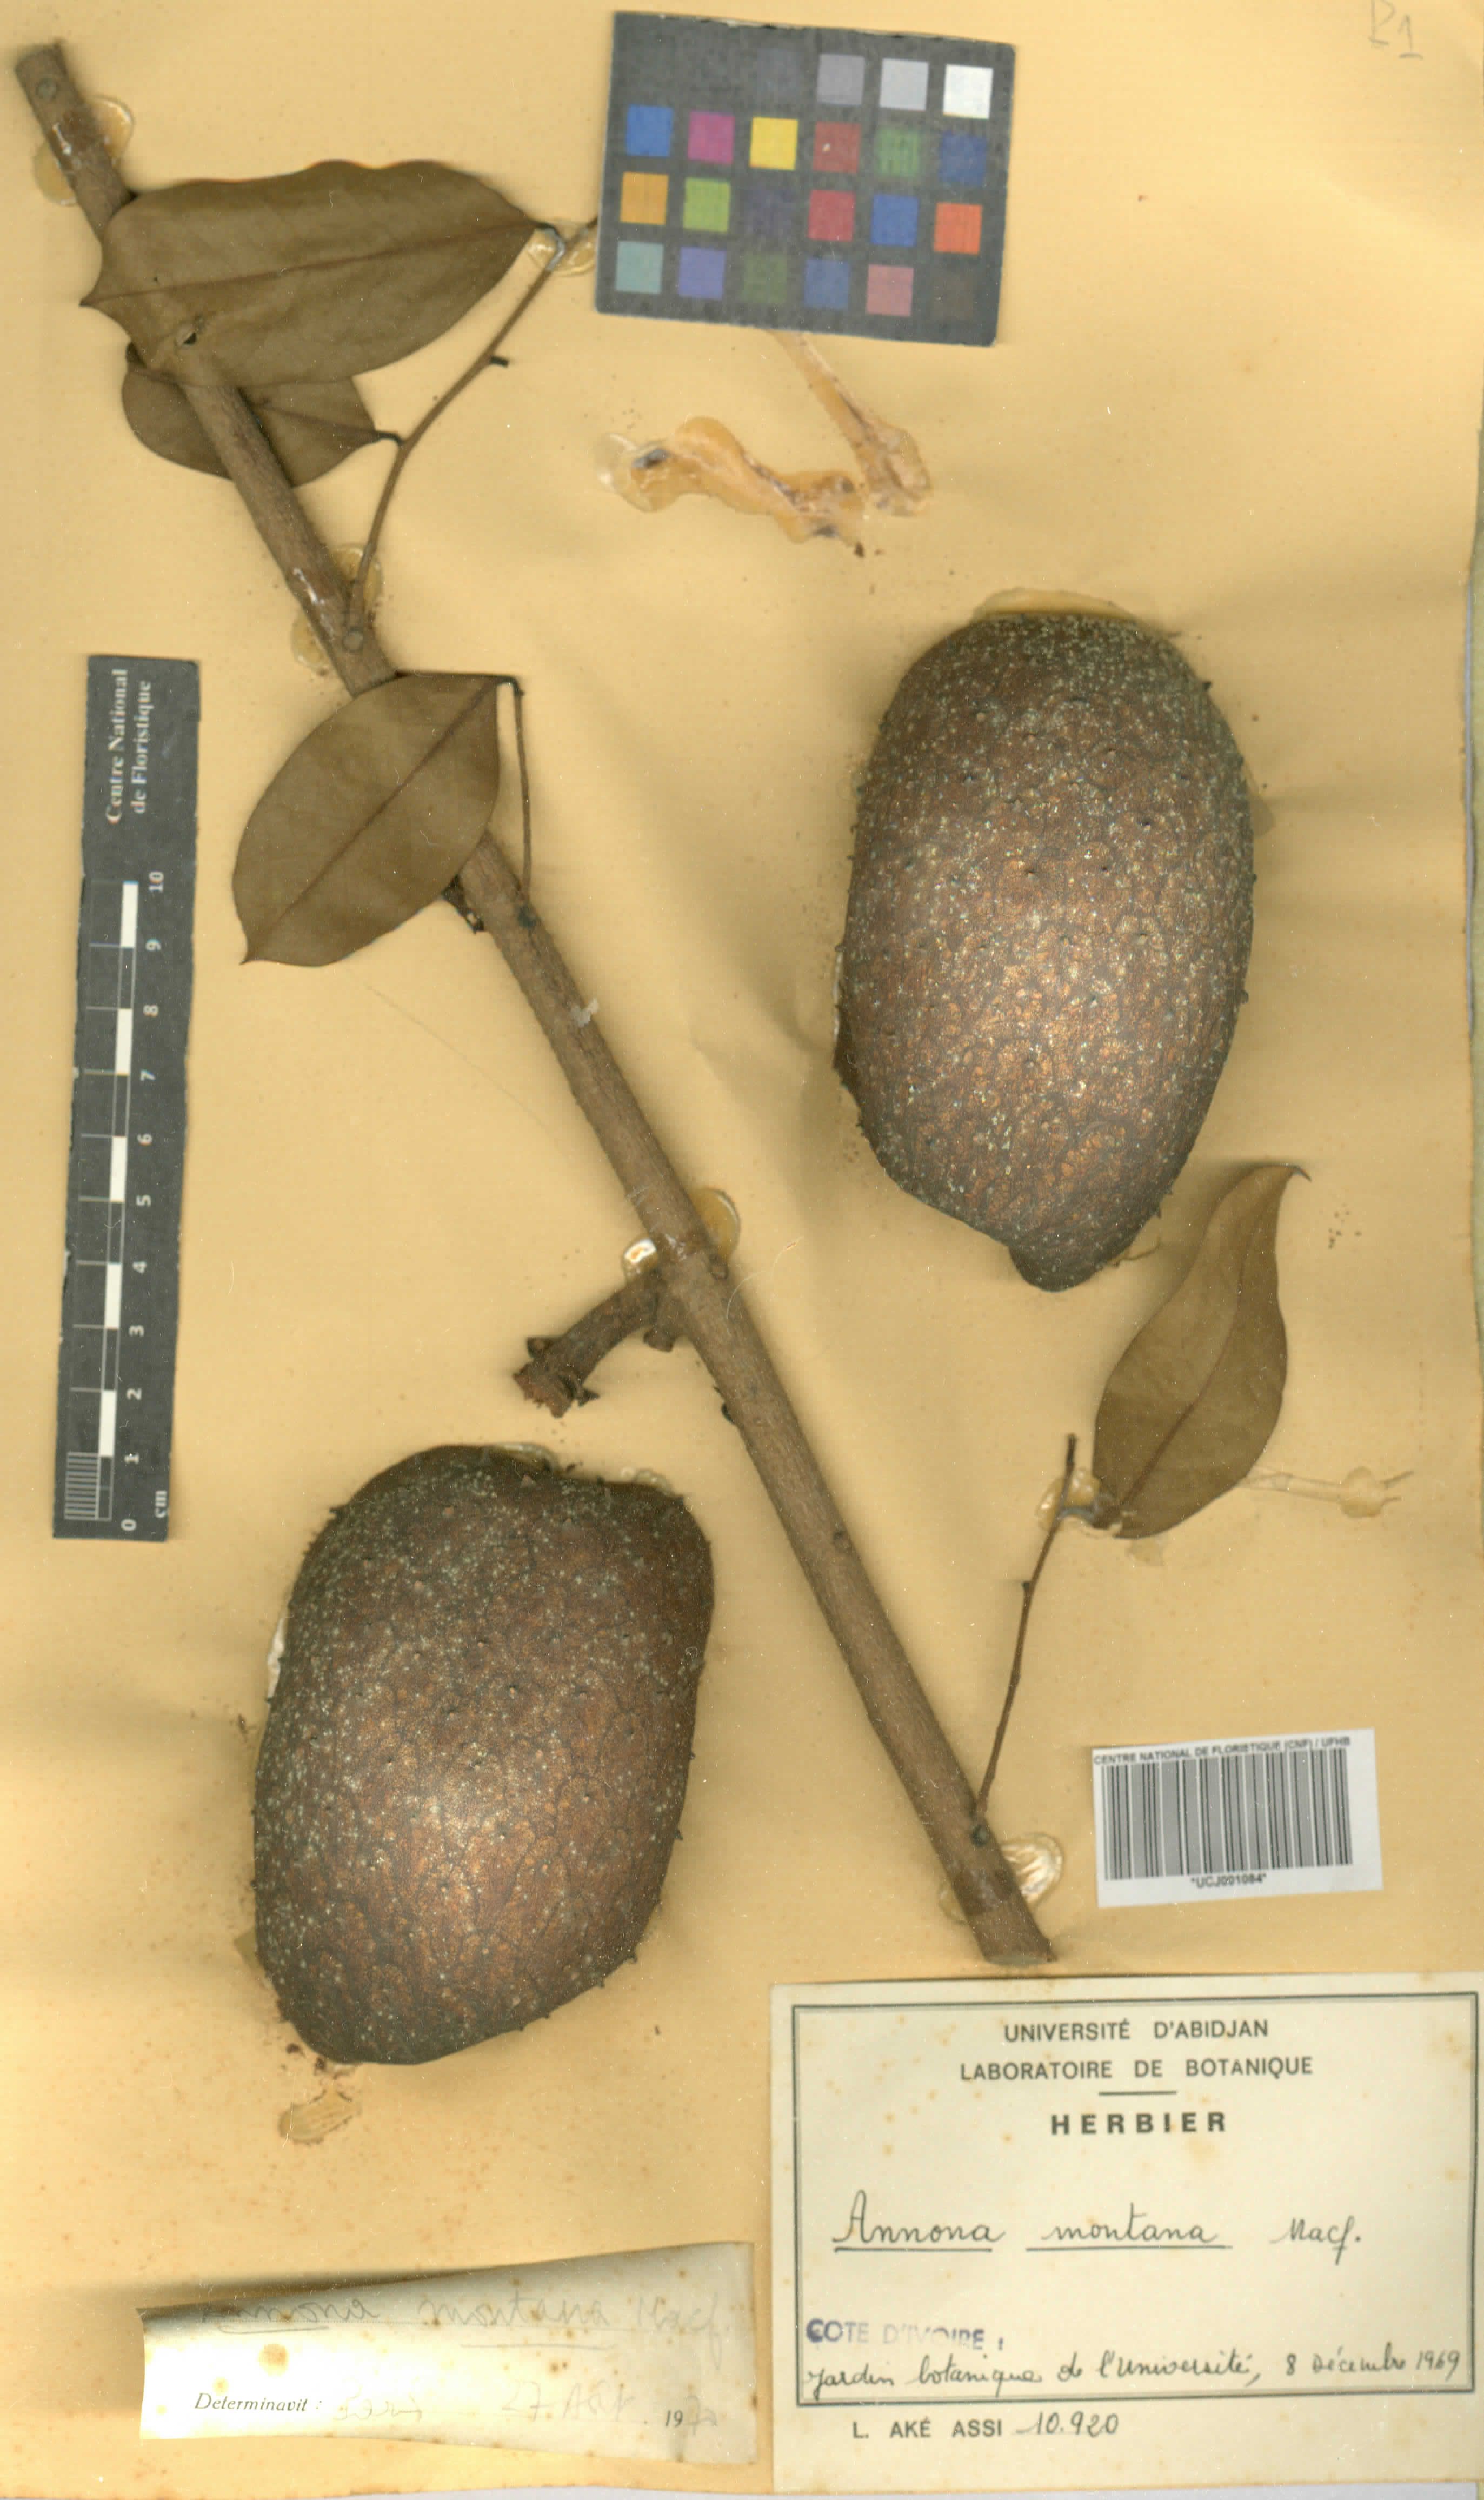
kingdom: Plantae
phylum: Tracheophyta
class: Magnoliopsida
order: Magnoliales
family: Annonaceae
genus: Annona
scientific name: Annona montana
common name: Mountain soursop
